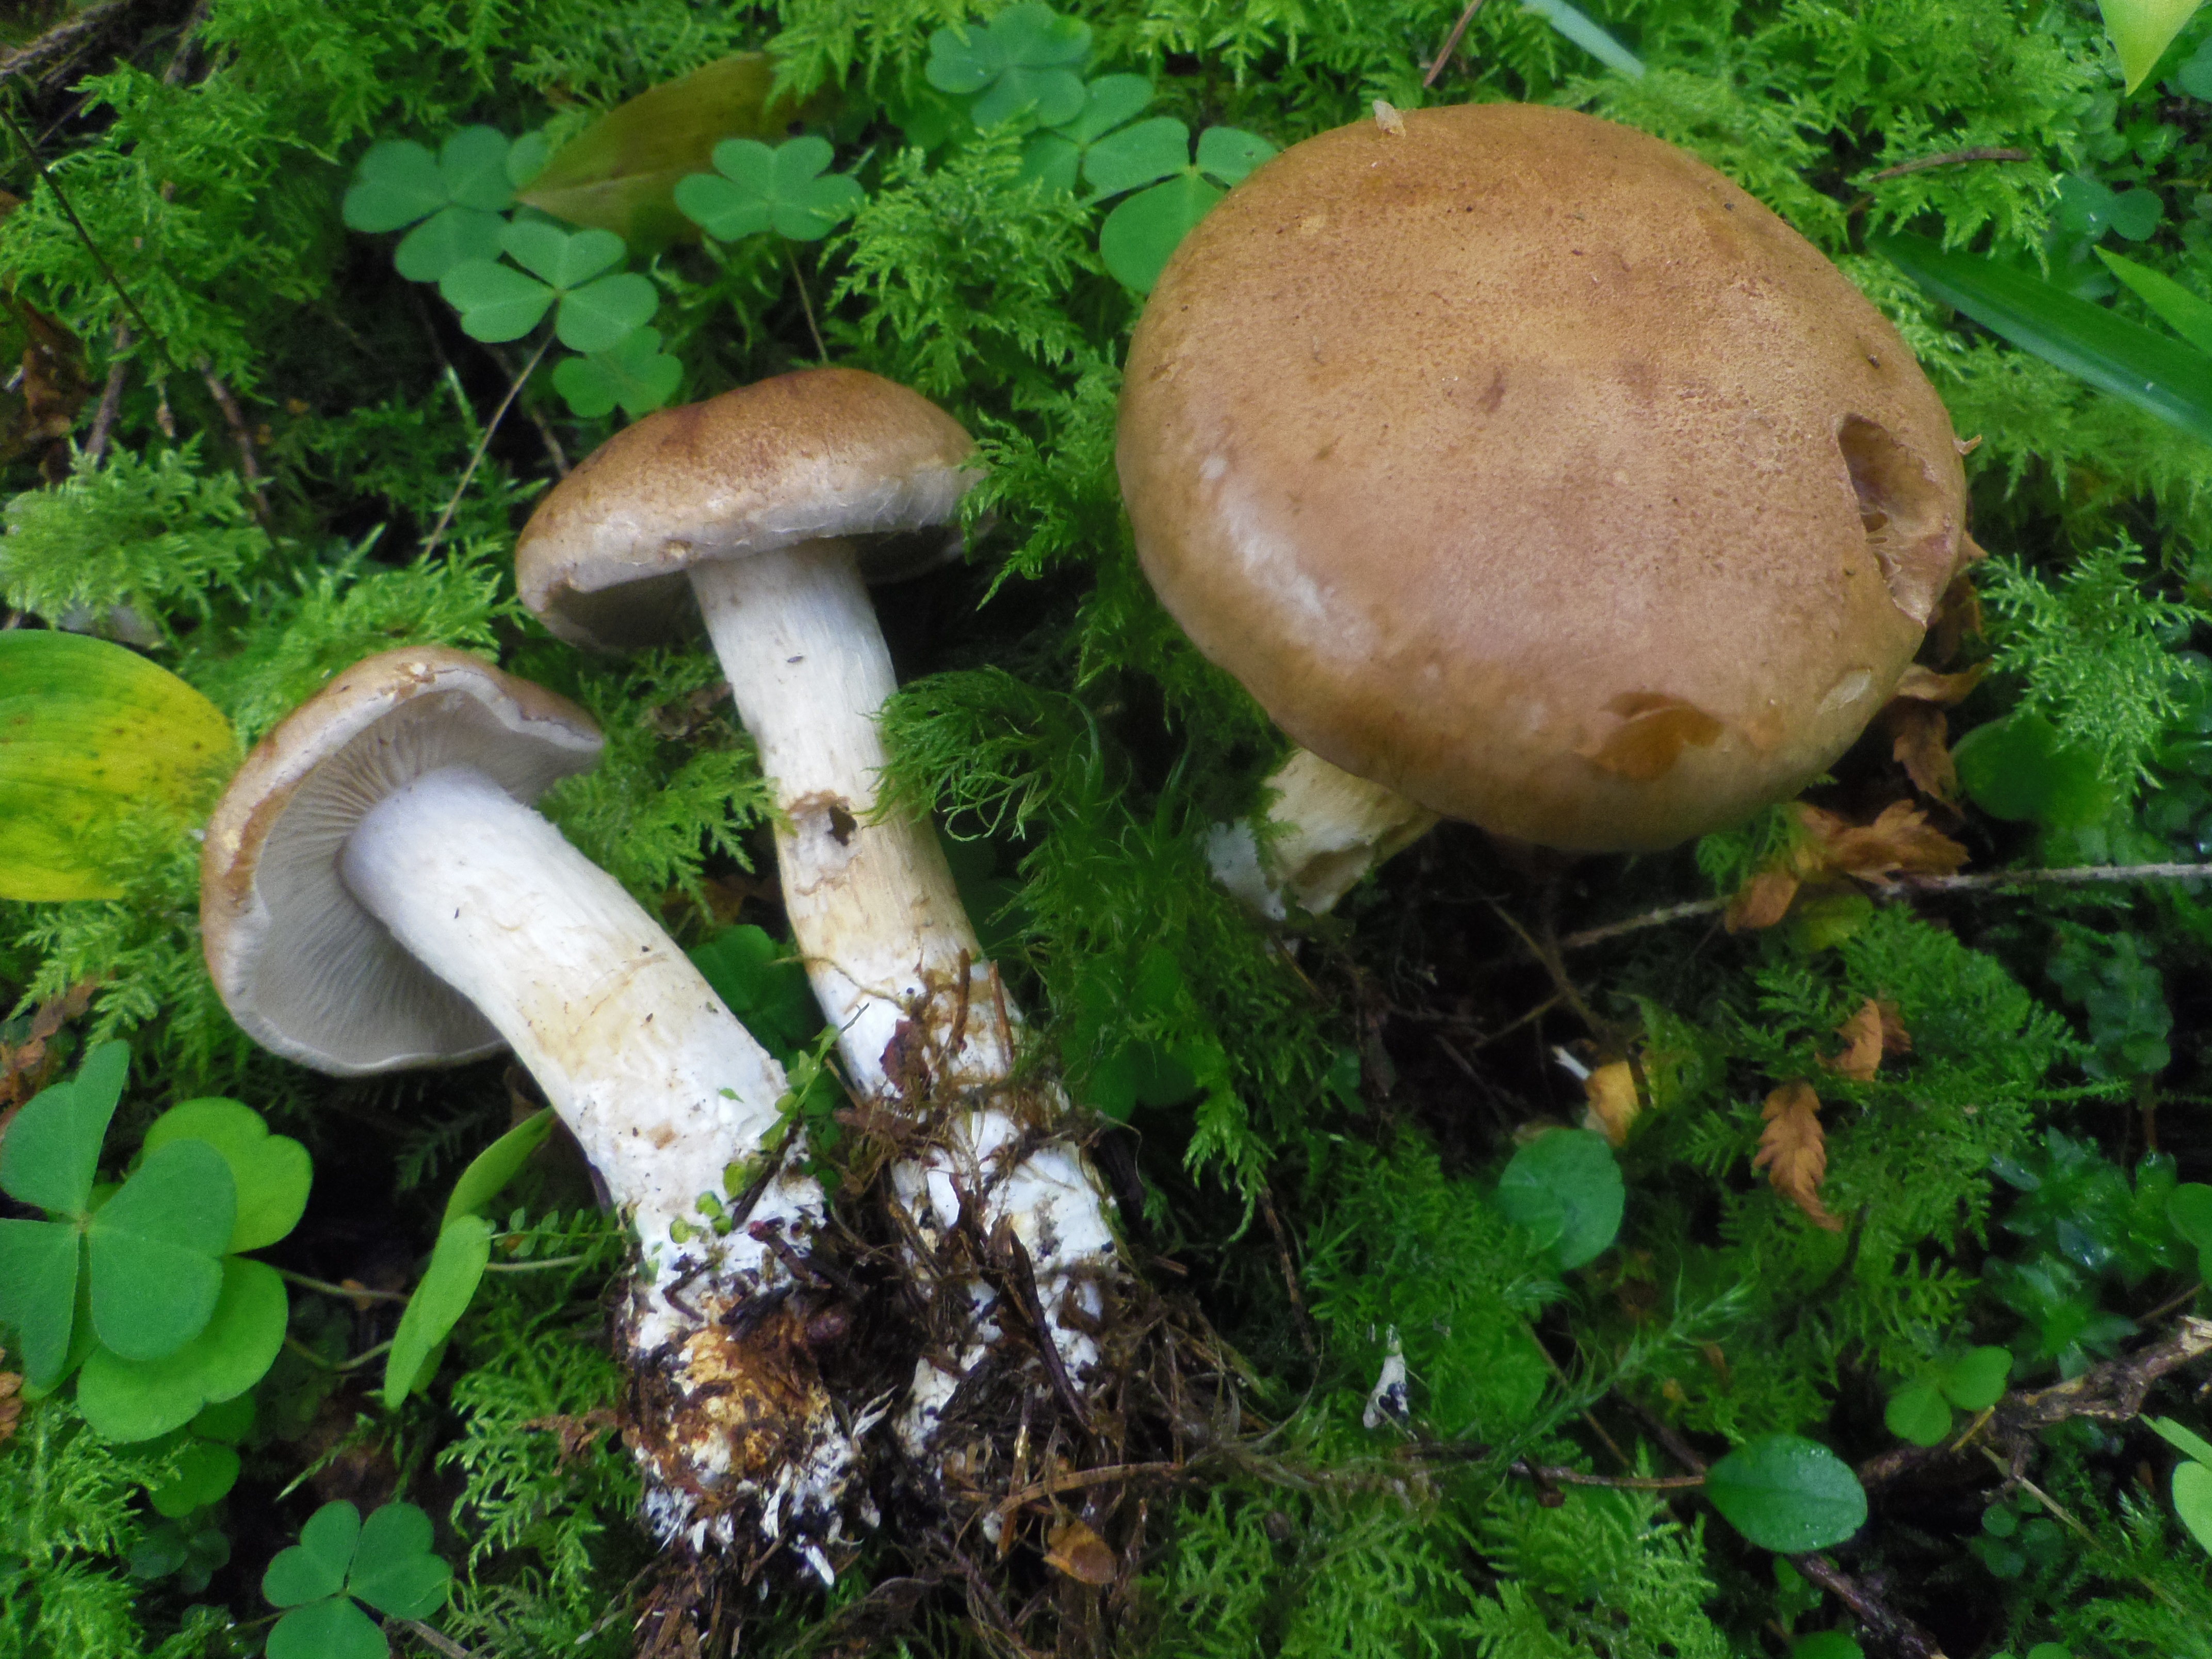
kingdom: Fungi
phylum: Basidiomycota
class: Agaricomycetes
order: Agaricales
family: Cortinariaceae
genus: Cortinarius
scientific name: Cortinarius
